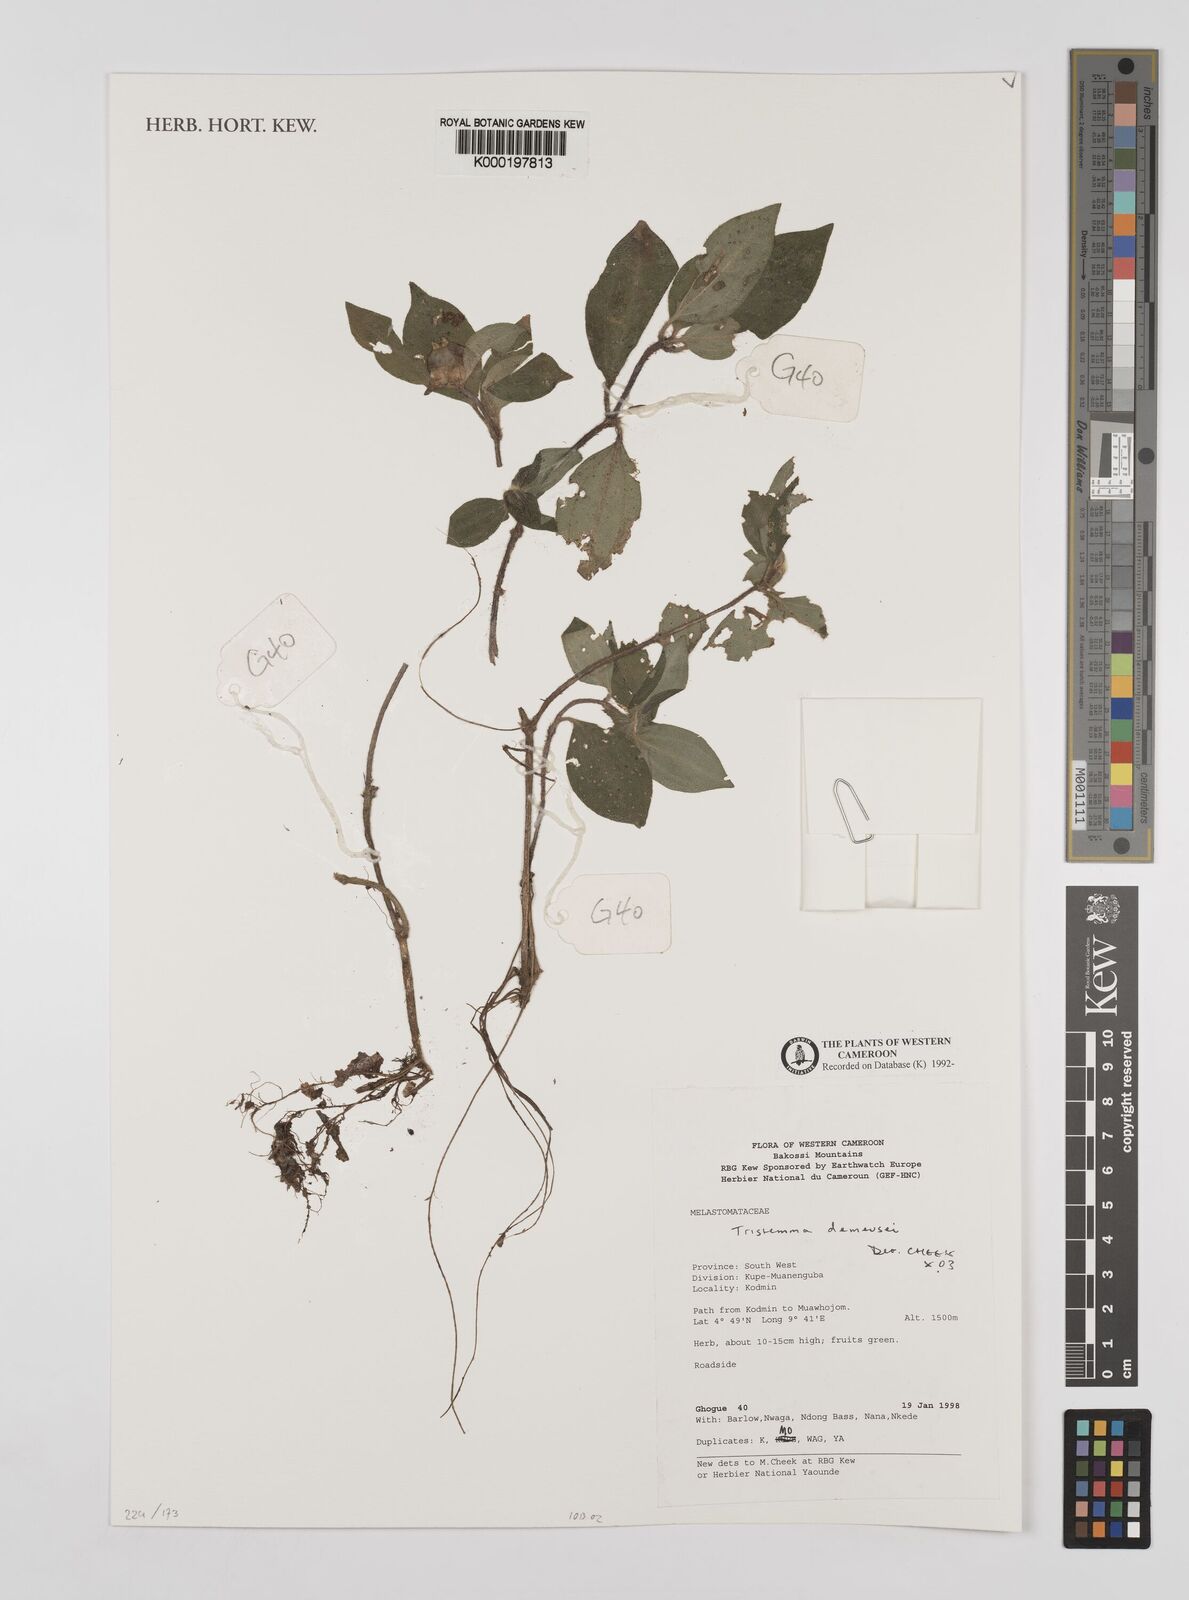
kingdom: Plantae
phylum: Tracheophyta
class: Magnoliopsida
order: Myrtales
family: Melastomataceae
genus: Tristemma
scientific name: Tristemma demeusei
